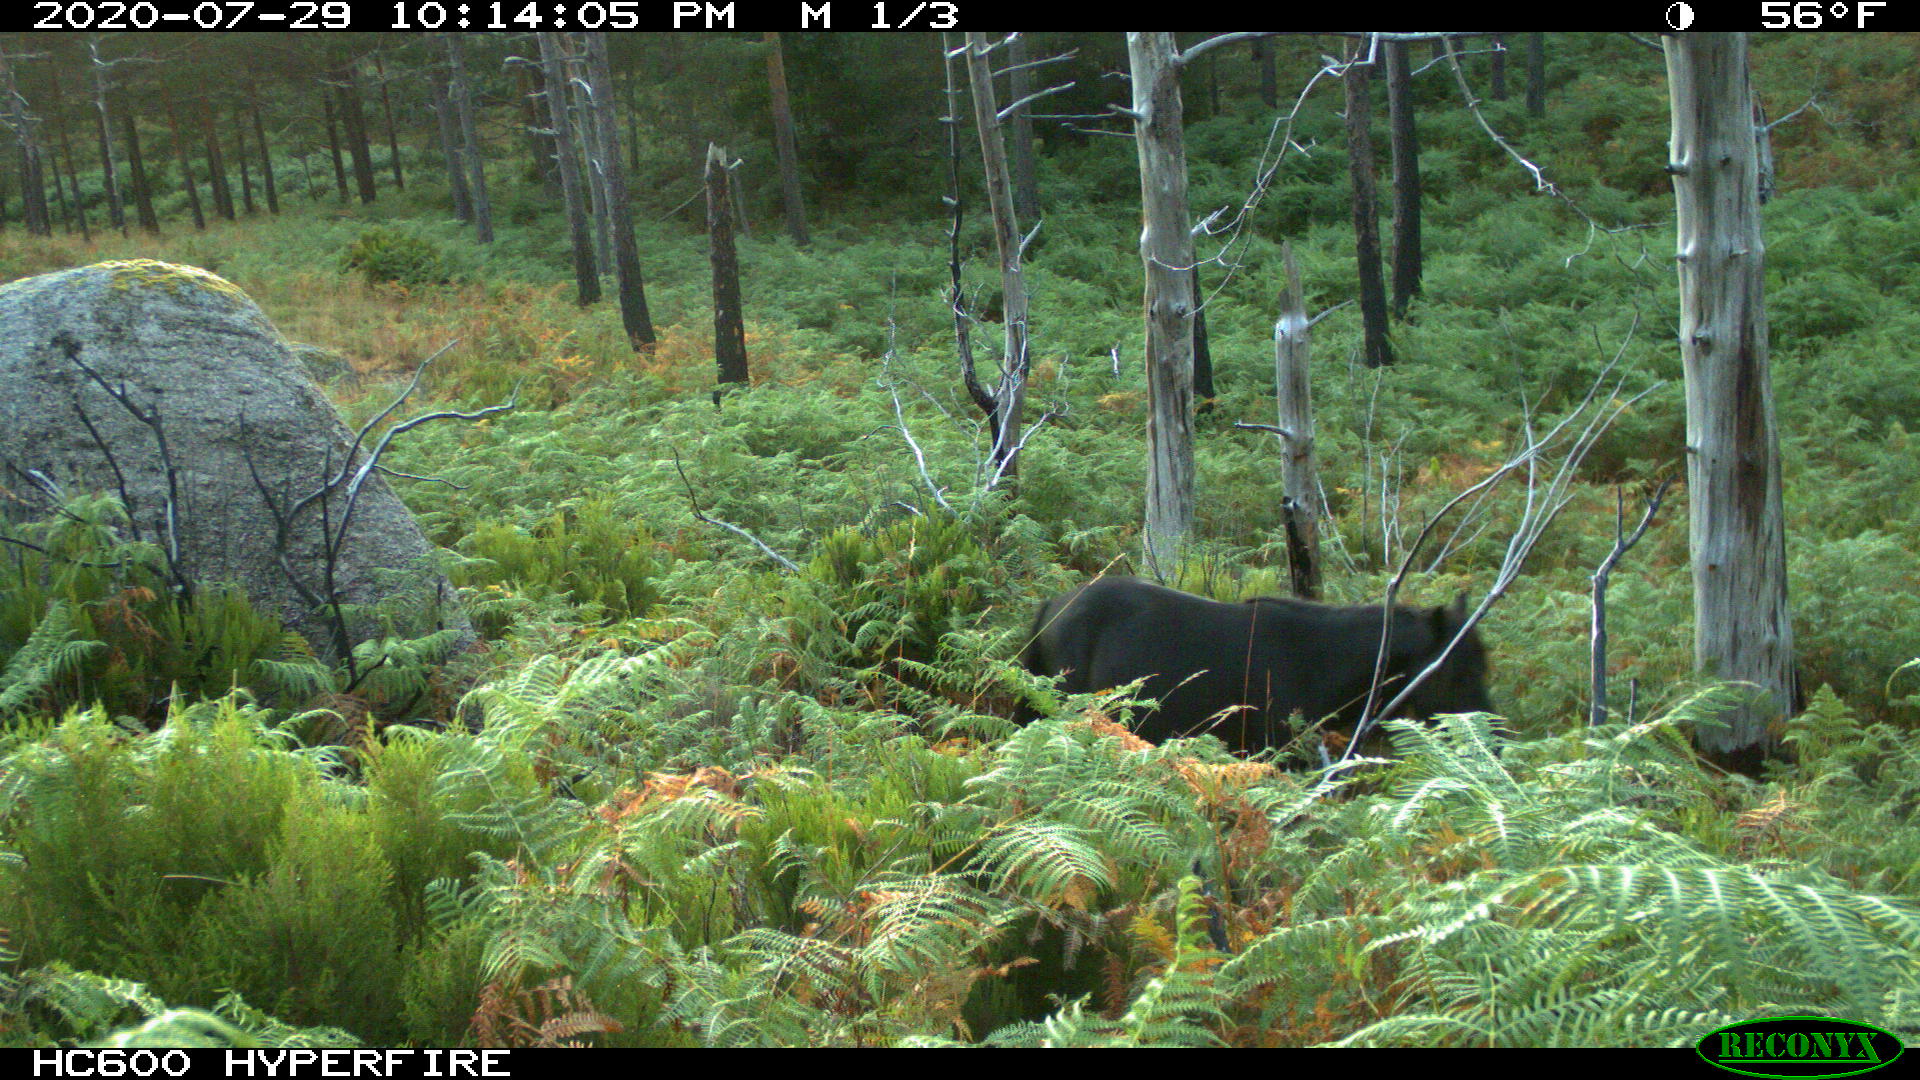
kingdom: Animalia
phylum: Chordata
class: Mammalia
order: Perissodactyla
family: Equidae
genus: Equus
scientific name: Equus caballus
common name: Horse
